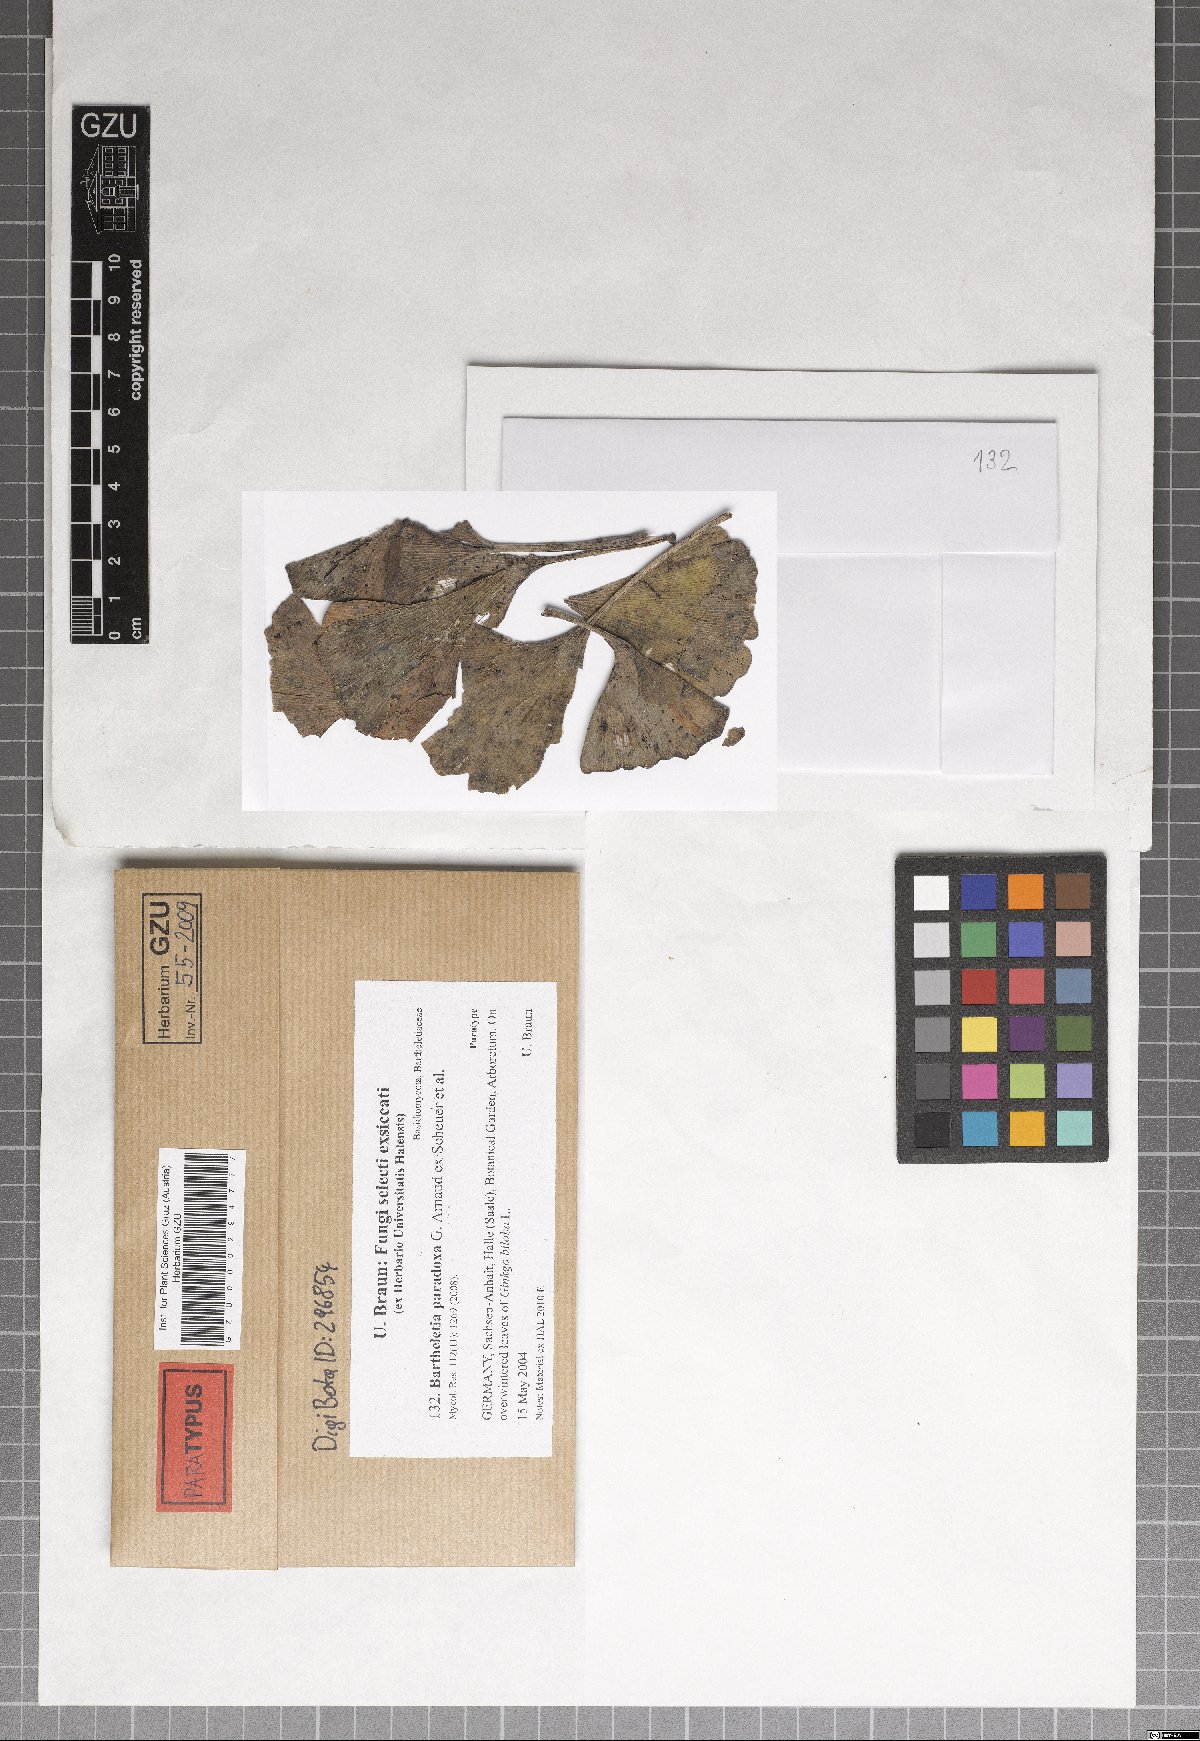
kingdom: Fungi
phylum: Basidiomycota
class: Wallemiomycetes
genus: Bartheletia
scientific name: Bartheletia paradoxa
